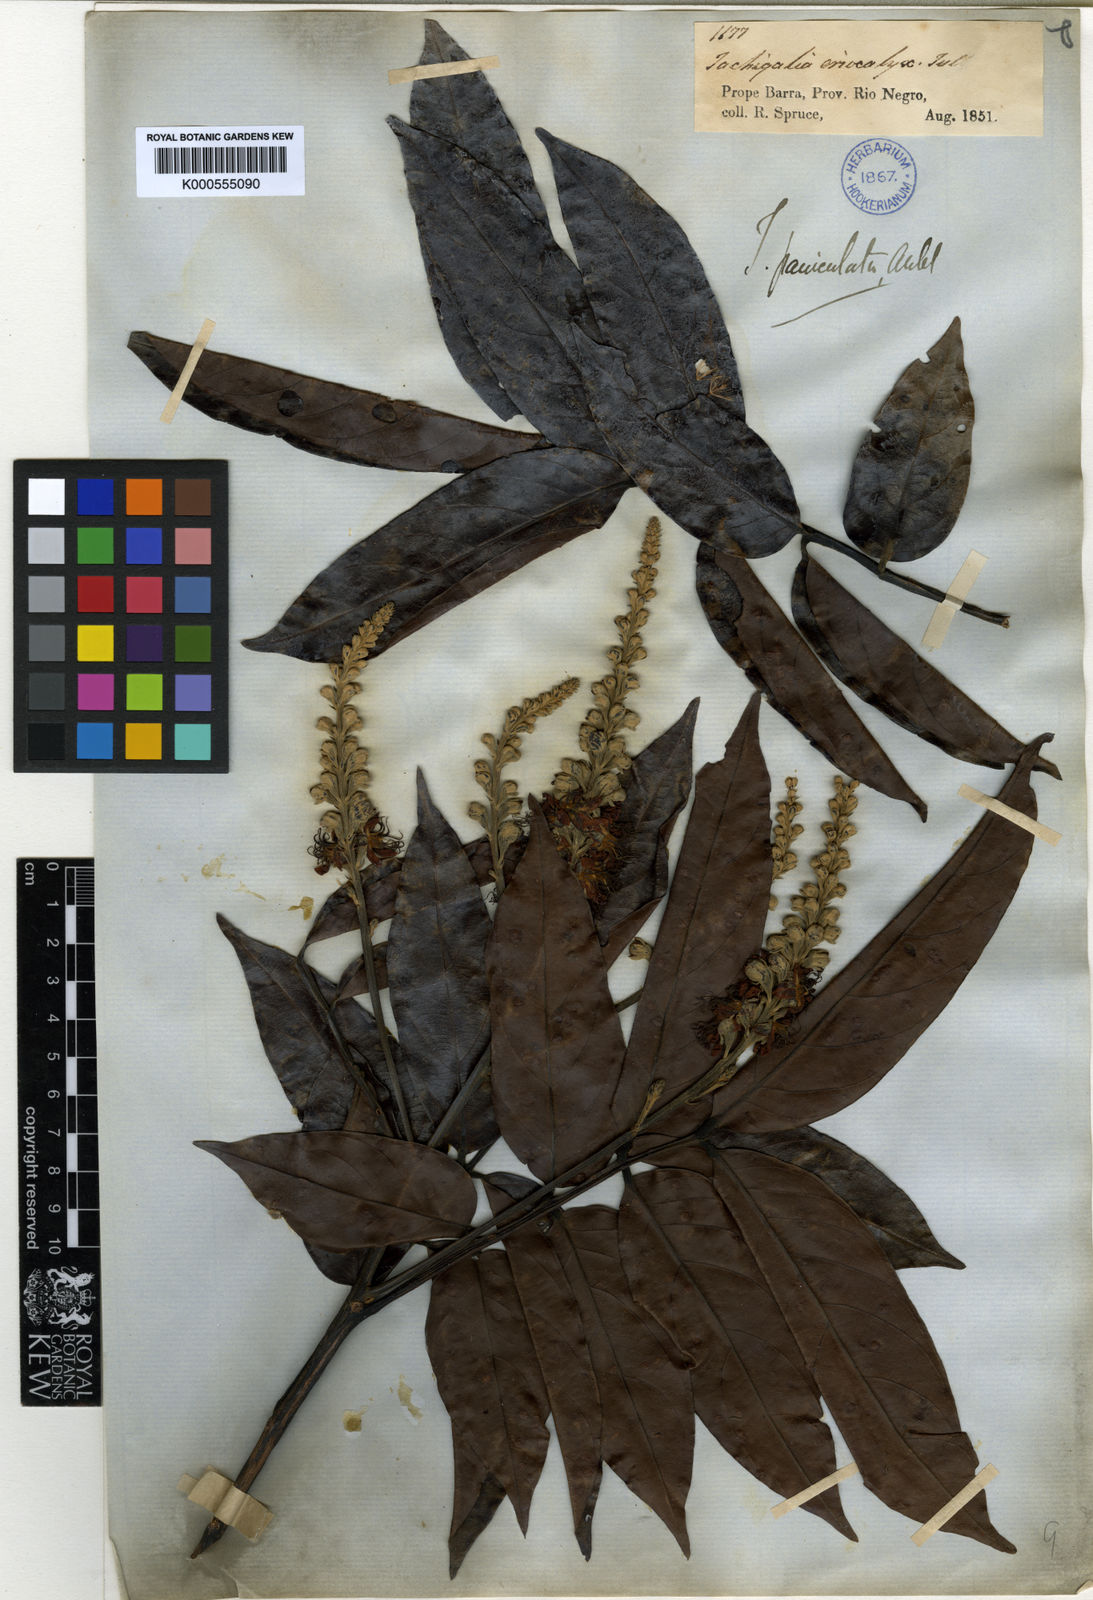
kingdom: Plantae
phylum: Tracheophyta
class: Magnoliopsida
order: Fabales
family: Fabaceae
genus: Tachigali
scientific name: Tachigali paniculata
